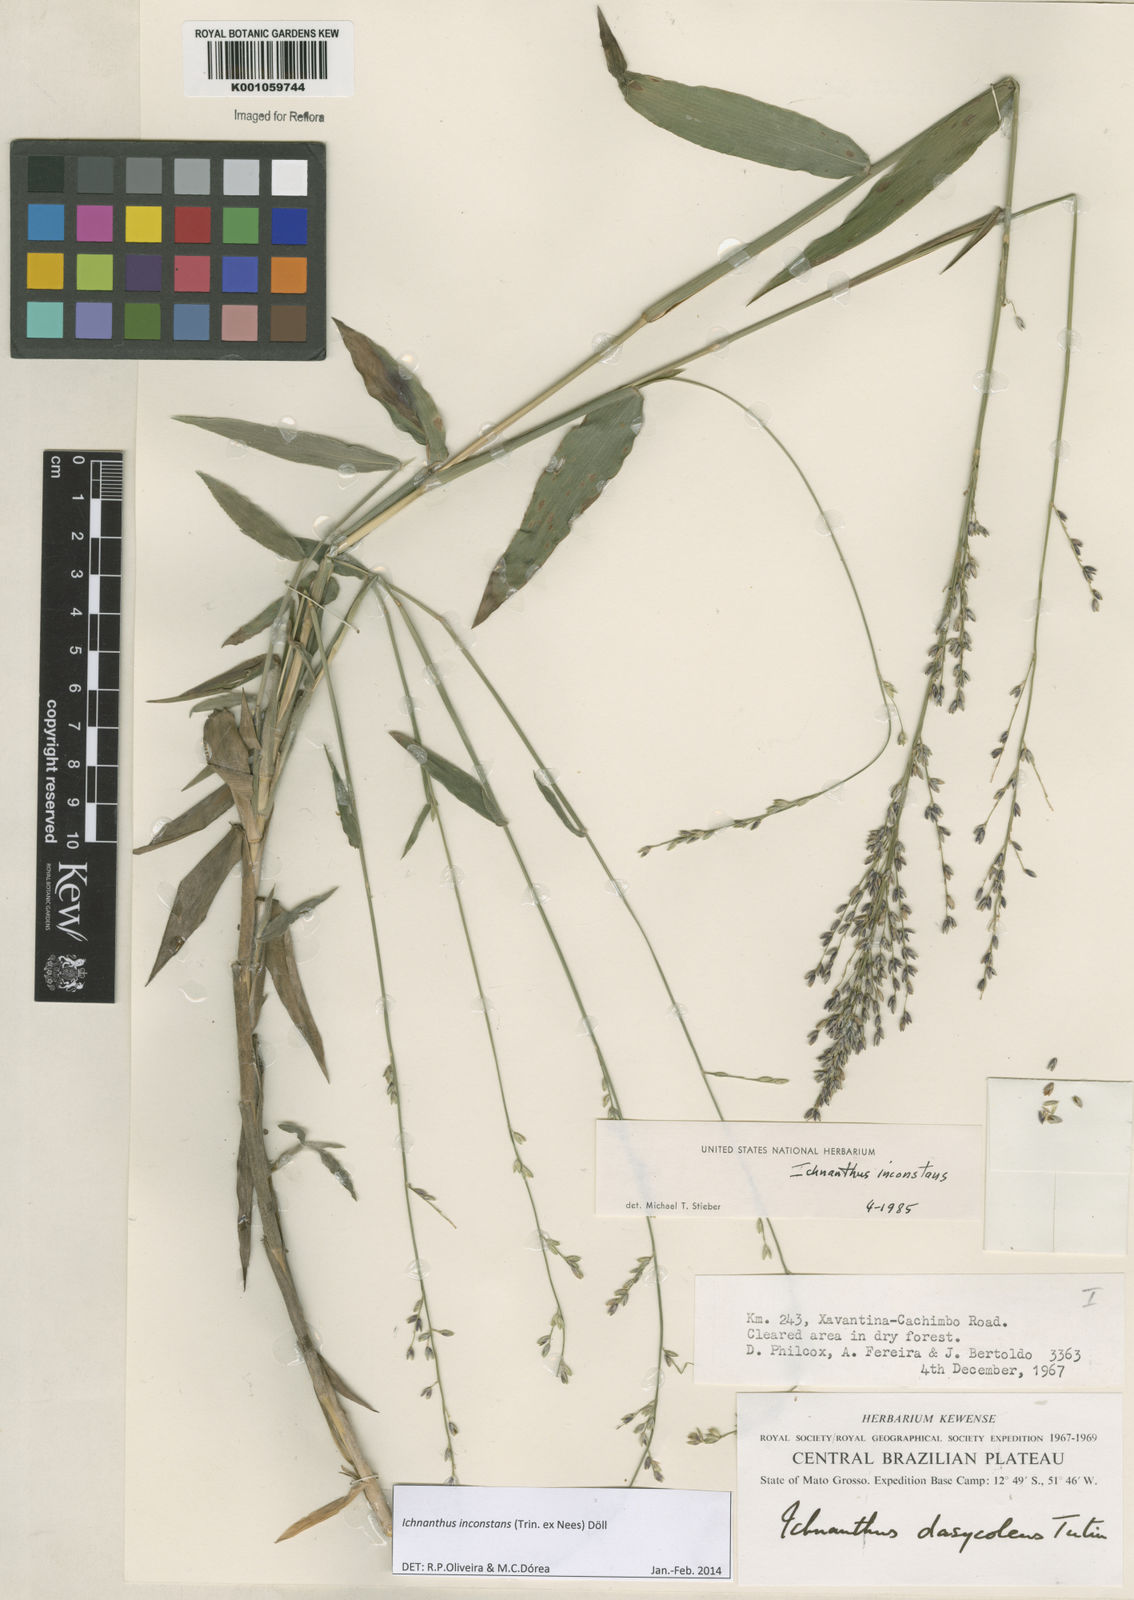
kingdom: Plantae
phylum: Tracheophyta
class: Liliopsida
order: Poales
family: Poaceae
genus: Ichnanthus
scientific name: Ichnanthus
